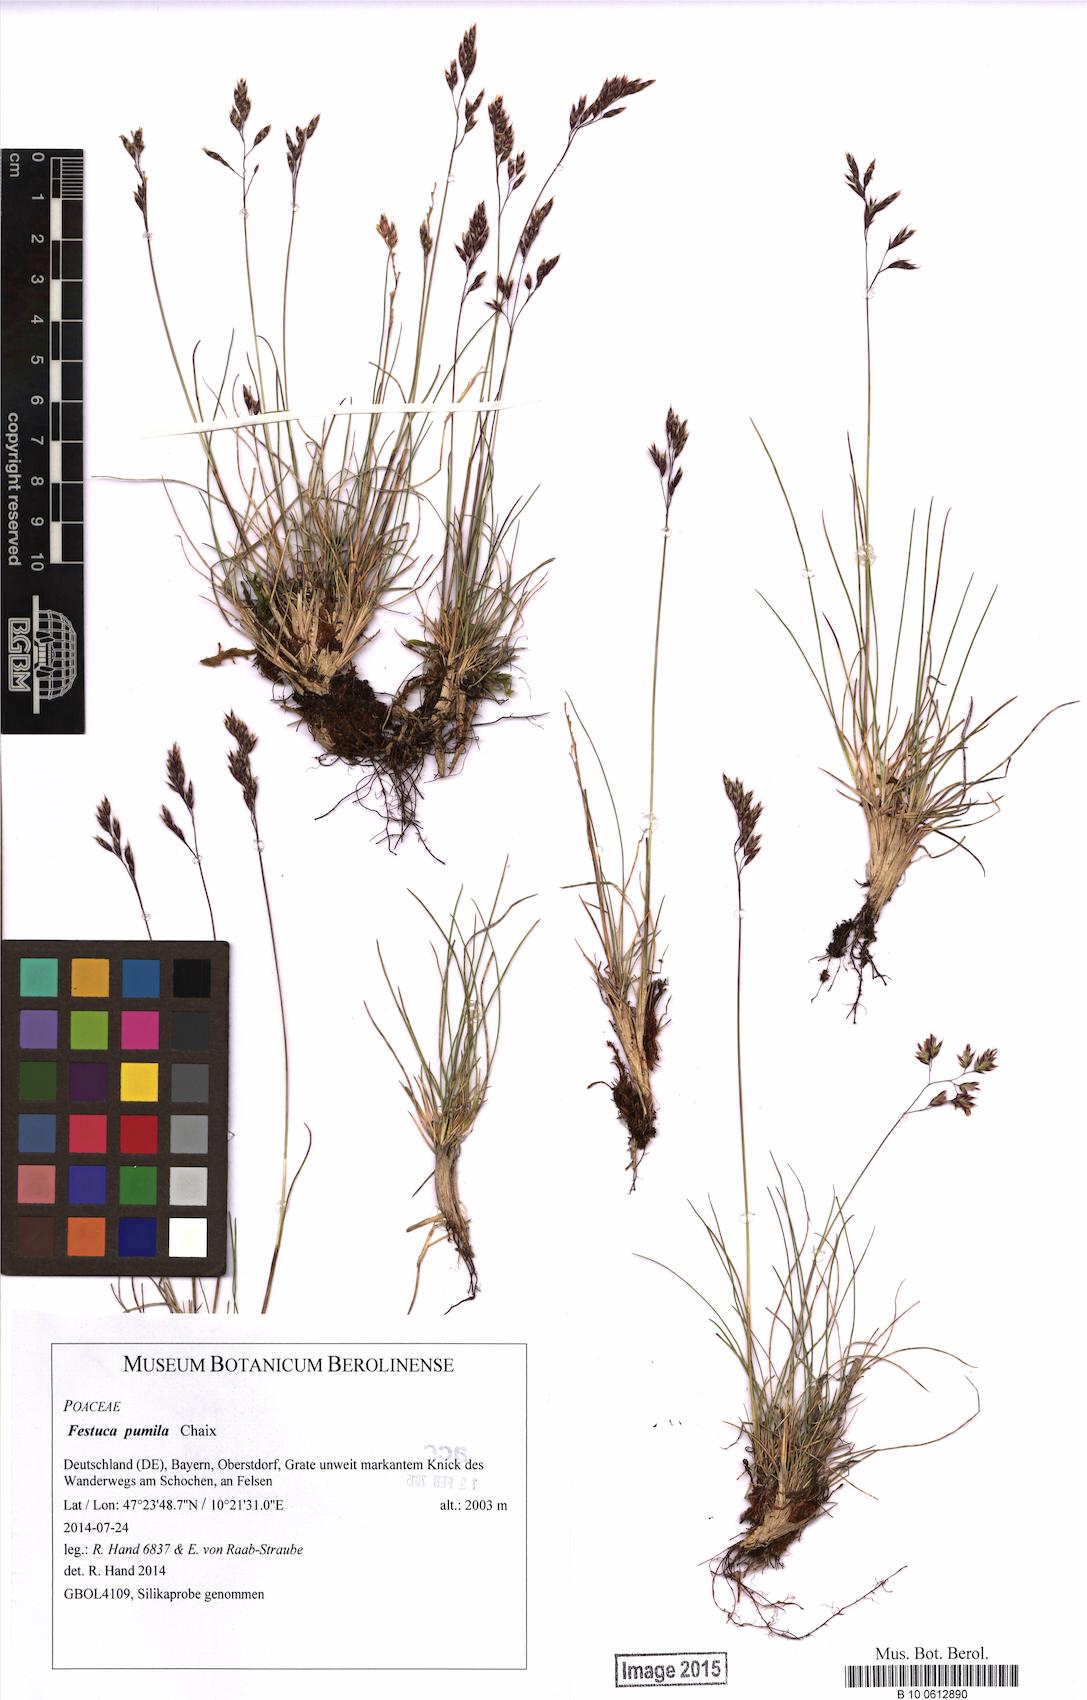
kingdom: Plantae
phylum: Tracheophyta
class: Liliopsida
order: Poales
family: Poaceae
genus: Festuca
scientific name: Festuca quadriflora
